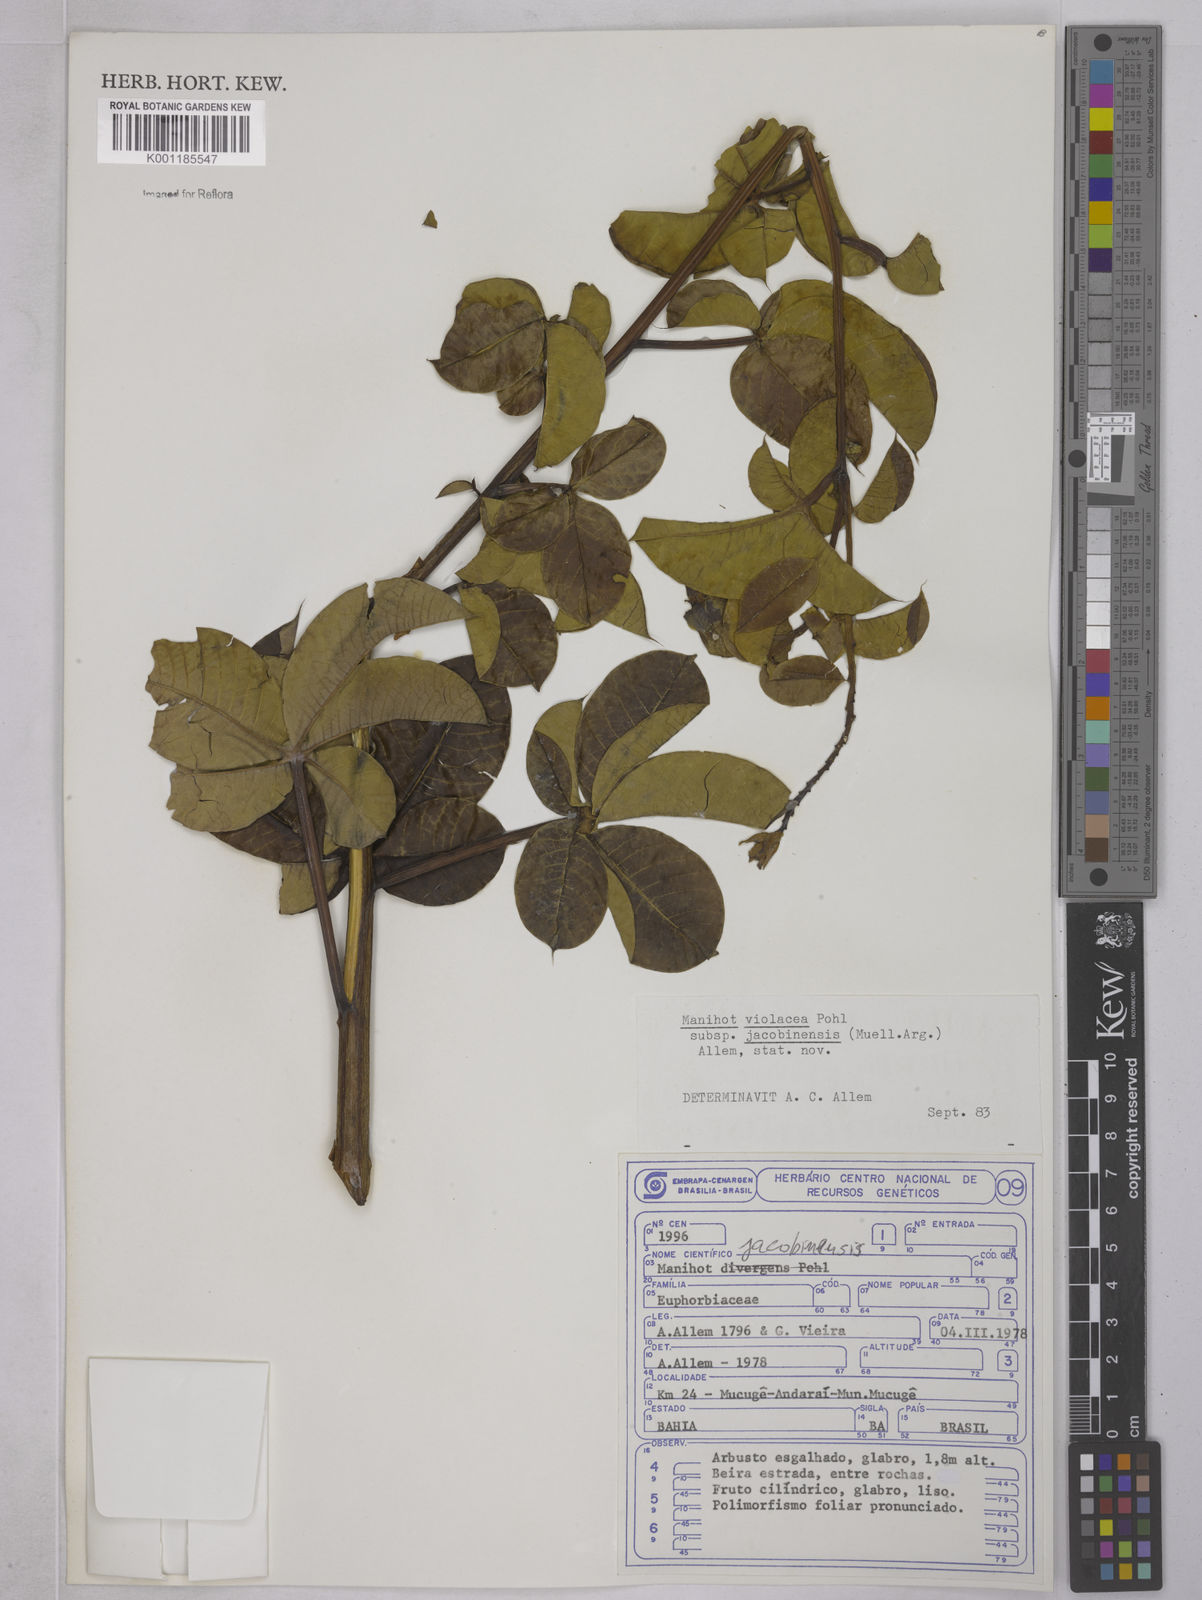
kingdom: Plantae
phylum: Tracheophyta
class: Magnoliopsida
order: Malpighiales
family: Euphorbiaceae
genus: Manihot
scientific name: Manihot
